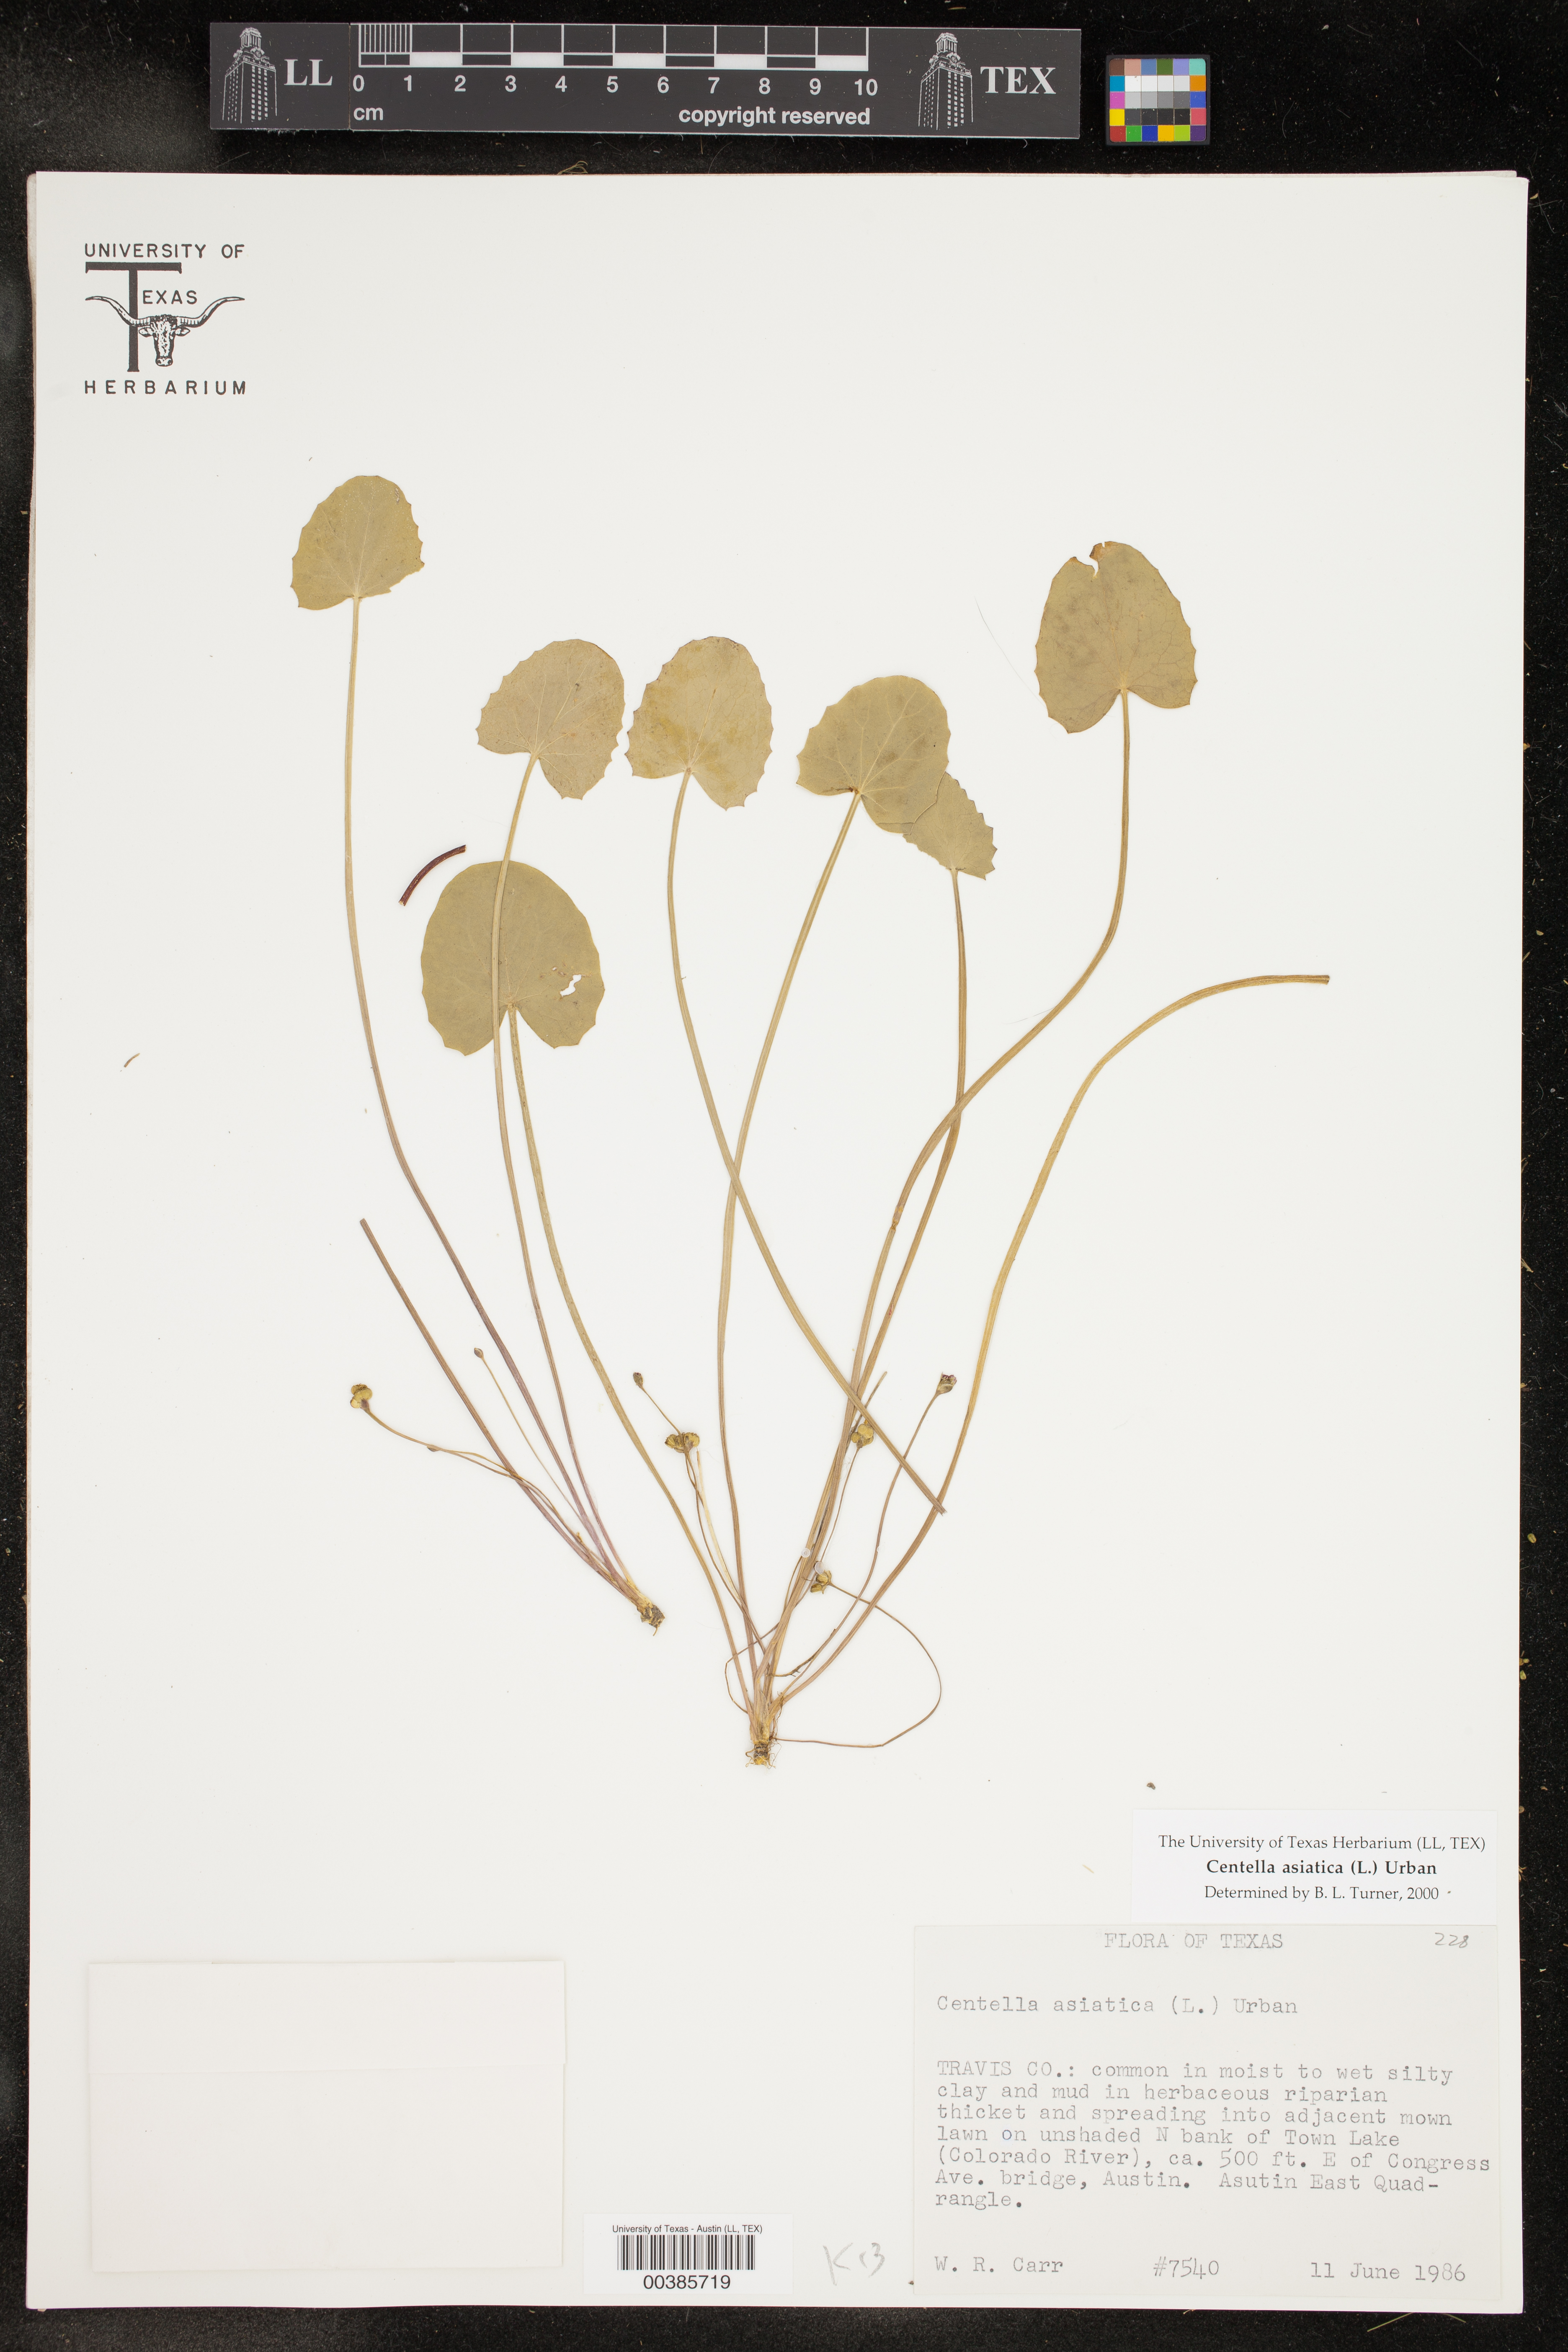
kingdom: Plantae
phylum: Tracheophyta
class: Magnoliopsida
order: Apiales
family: Apiaceae
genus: Centella
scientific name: Centella asiatica
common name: Spadeleaf
